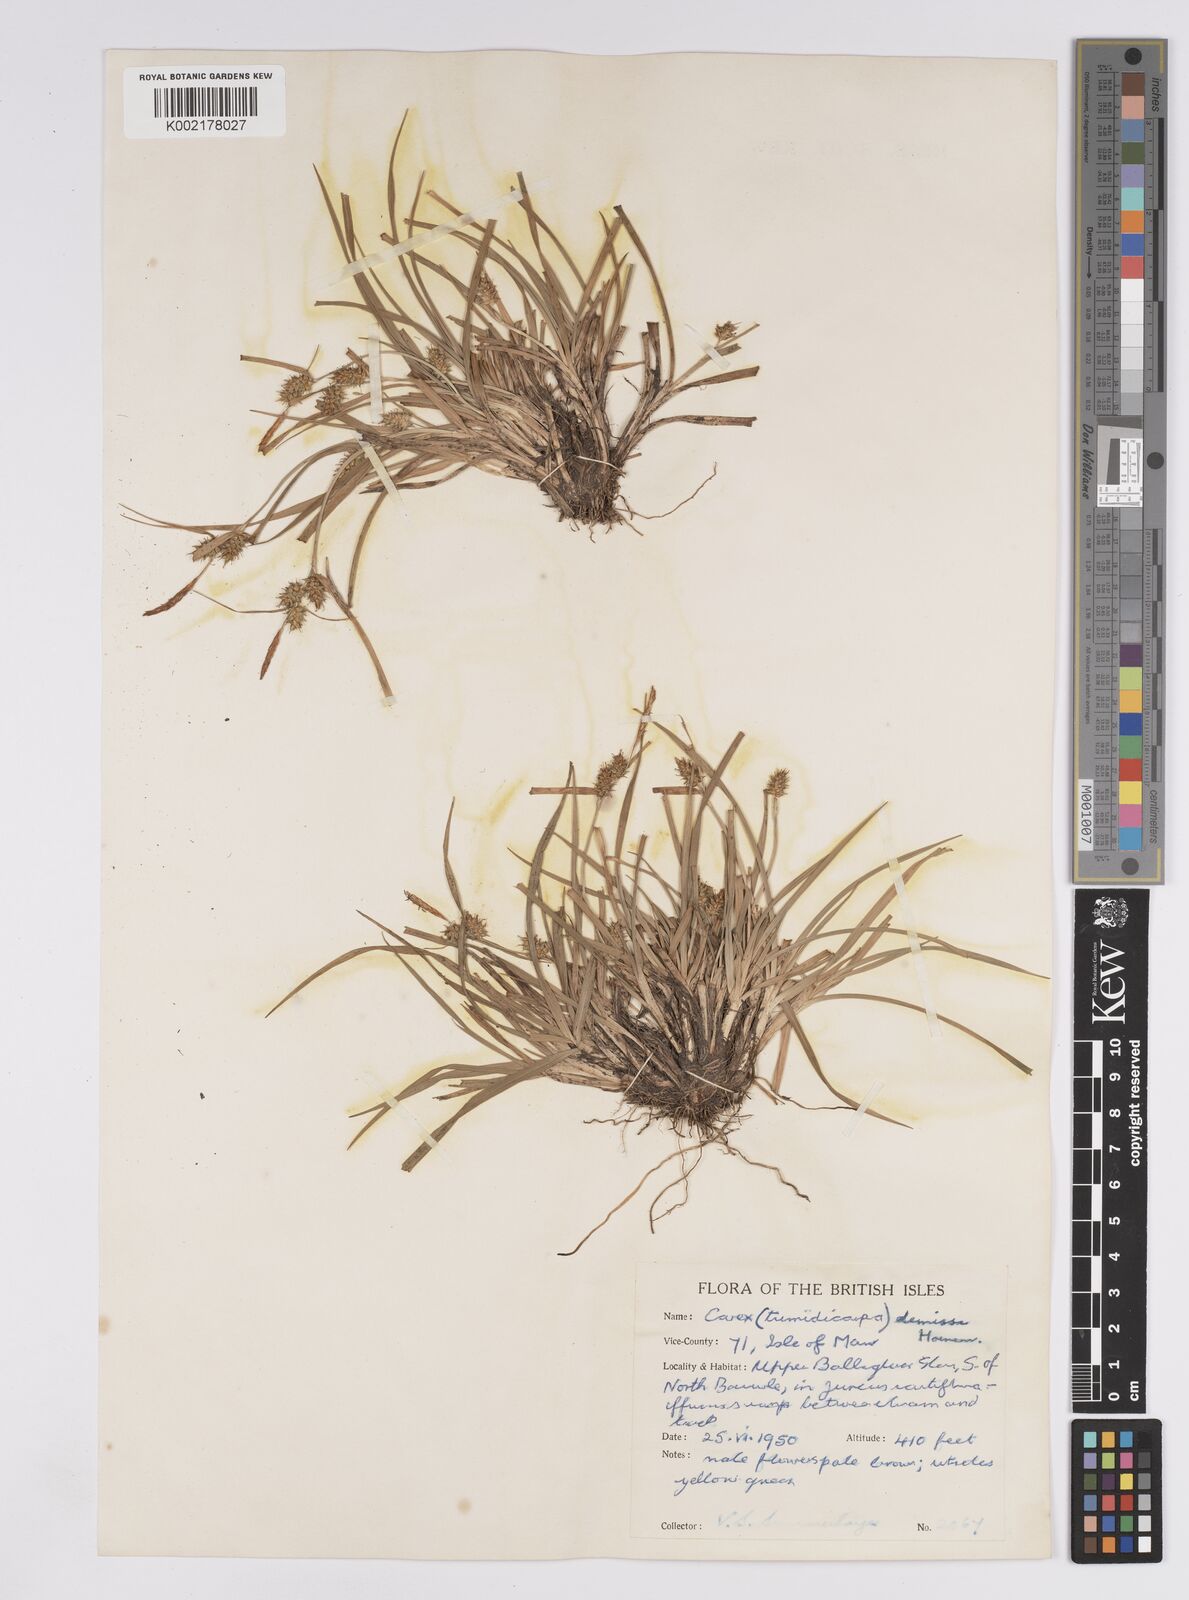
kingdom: Plantae
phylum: Tracheophyta
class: Liliopsida
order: Poales
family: Cyperaceae
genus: Carex
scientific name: Carex demissa
